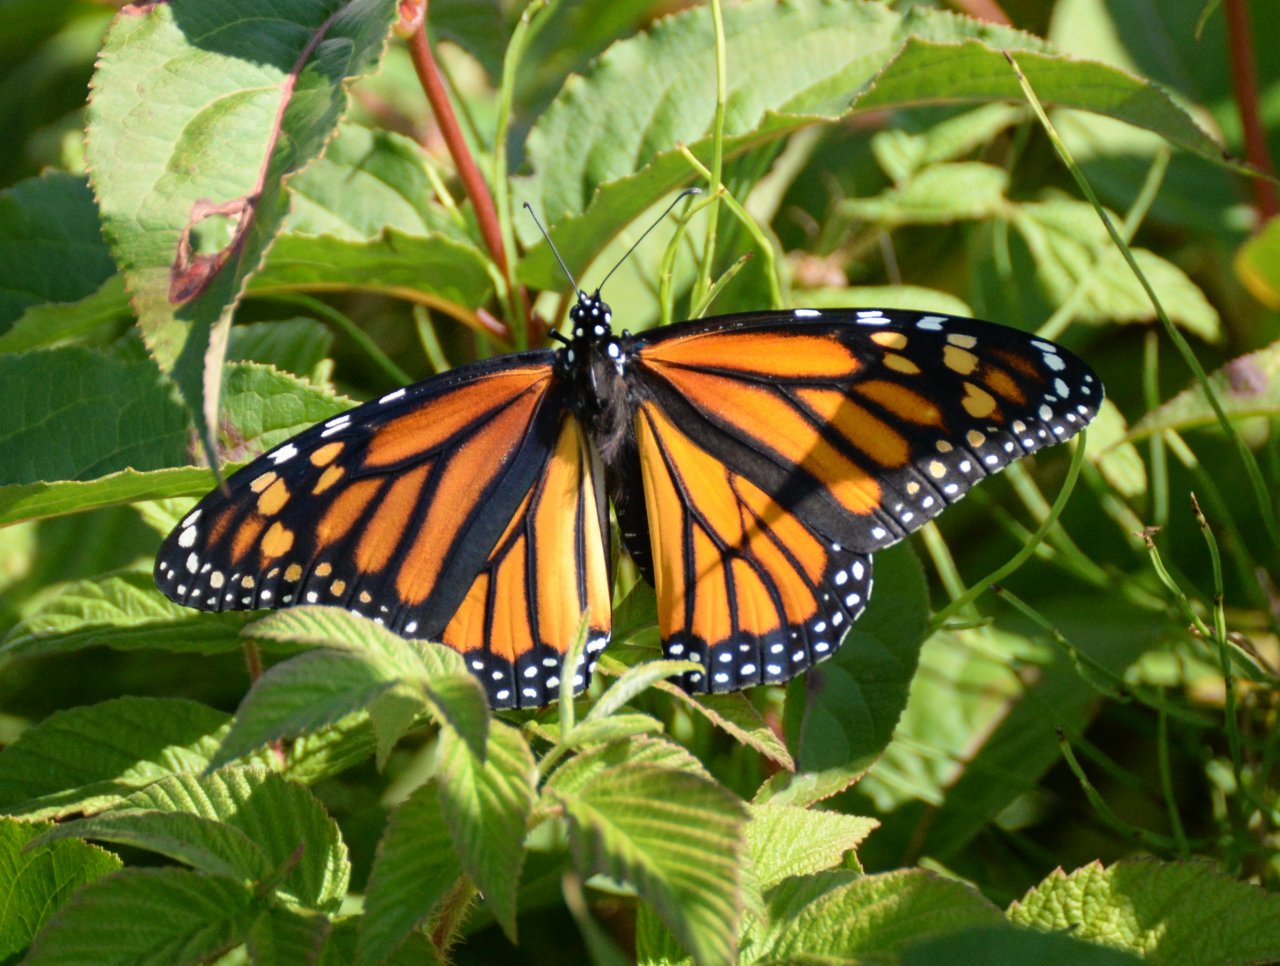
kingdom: Animalia
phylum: Arthropoda
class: Insecta
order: Lepidoptera
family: Nymphalidae
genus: Danaus
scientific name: Danaus plexippus
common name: Monarch
